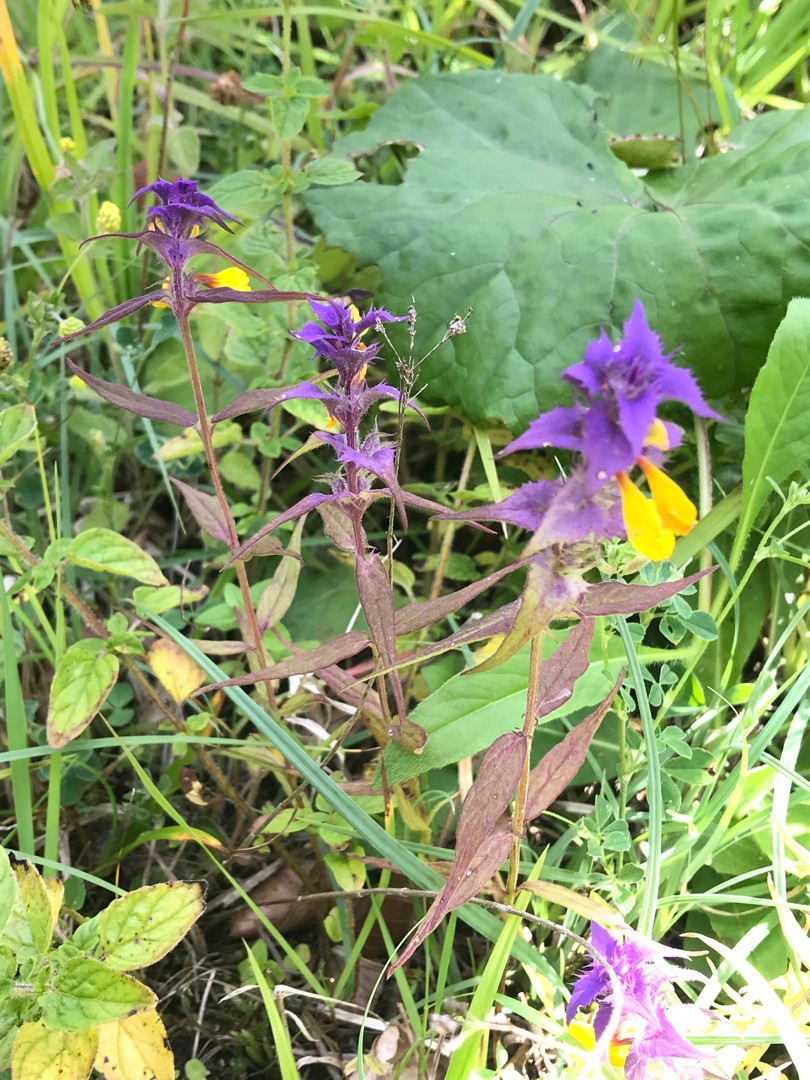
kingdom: Plantae
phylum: Tracheophyta
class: Magnoliopsida
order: Lamiales
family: Orobanchaceae
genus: Melampyrum
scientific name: Melampyrum nemorosum
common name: Blåtoppet kohvede
